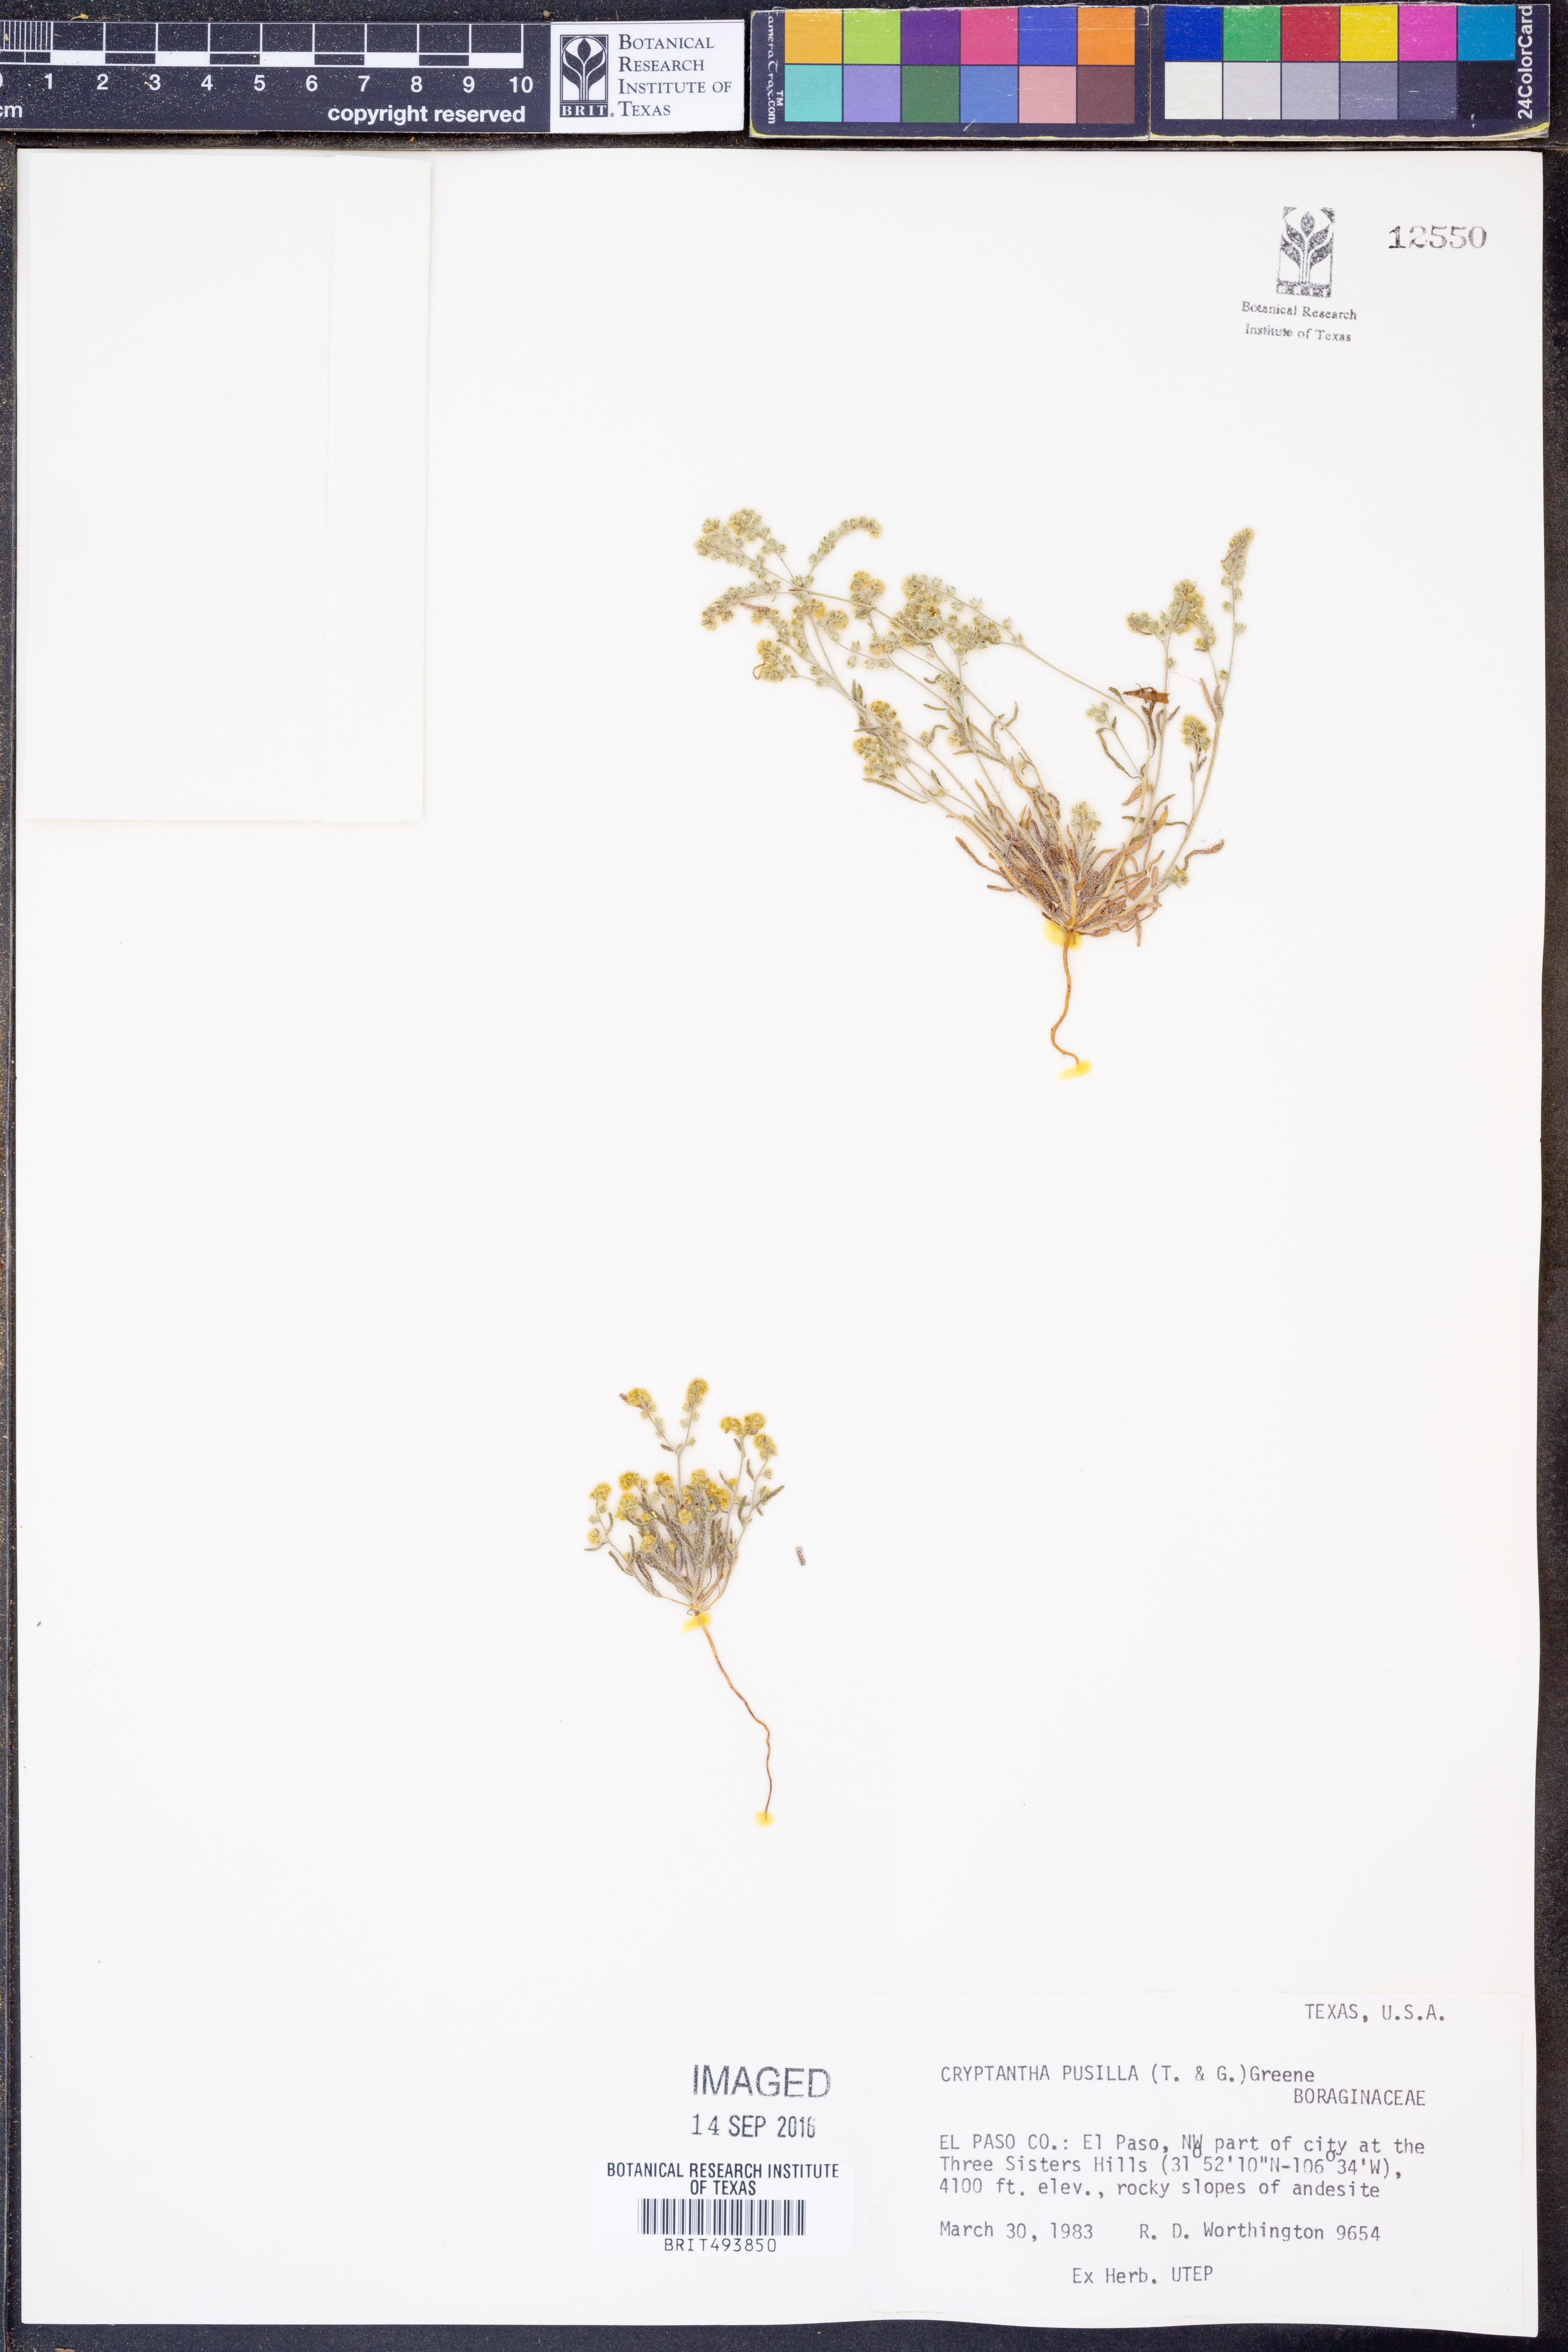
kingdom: Plantae
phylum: Tracheophyta
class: Magnoliopsida
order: Boraginales
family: Boraginaceae
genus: Johnstonella
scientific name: Johnstonella pusilla
